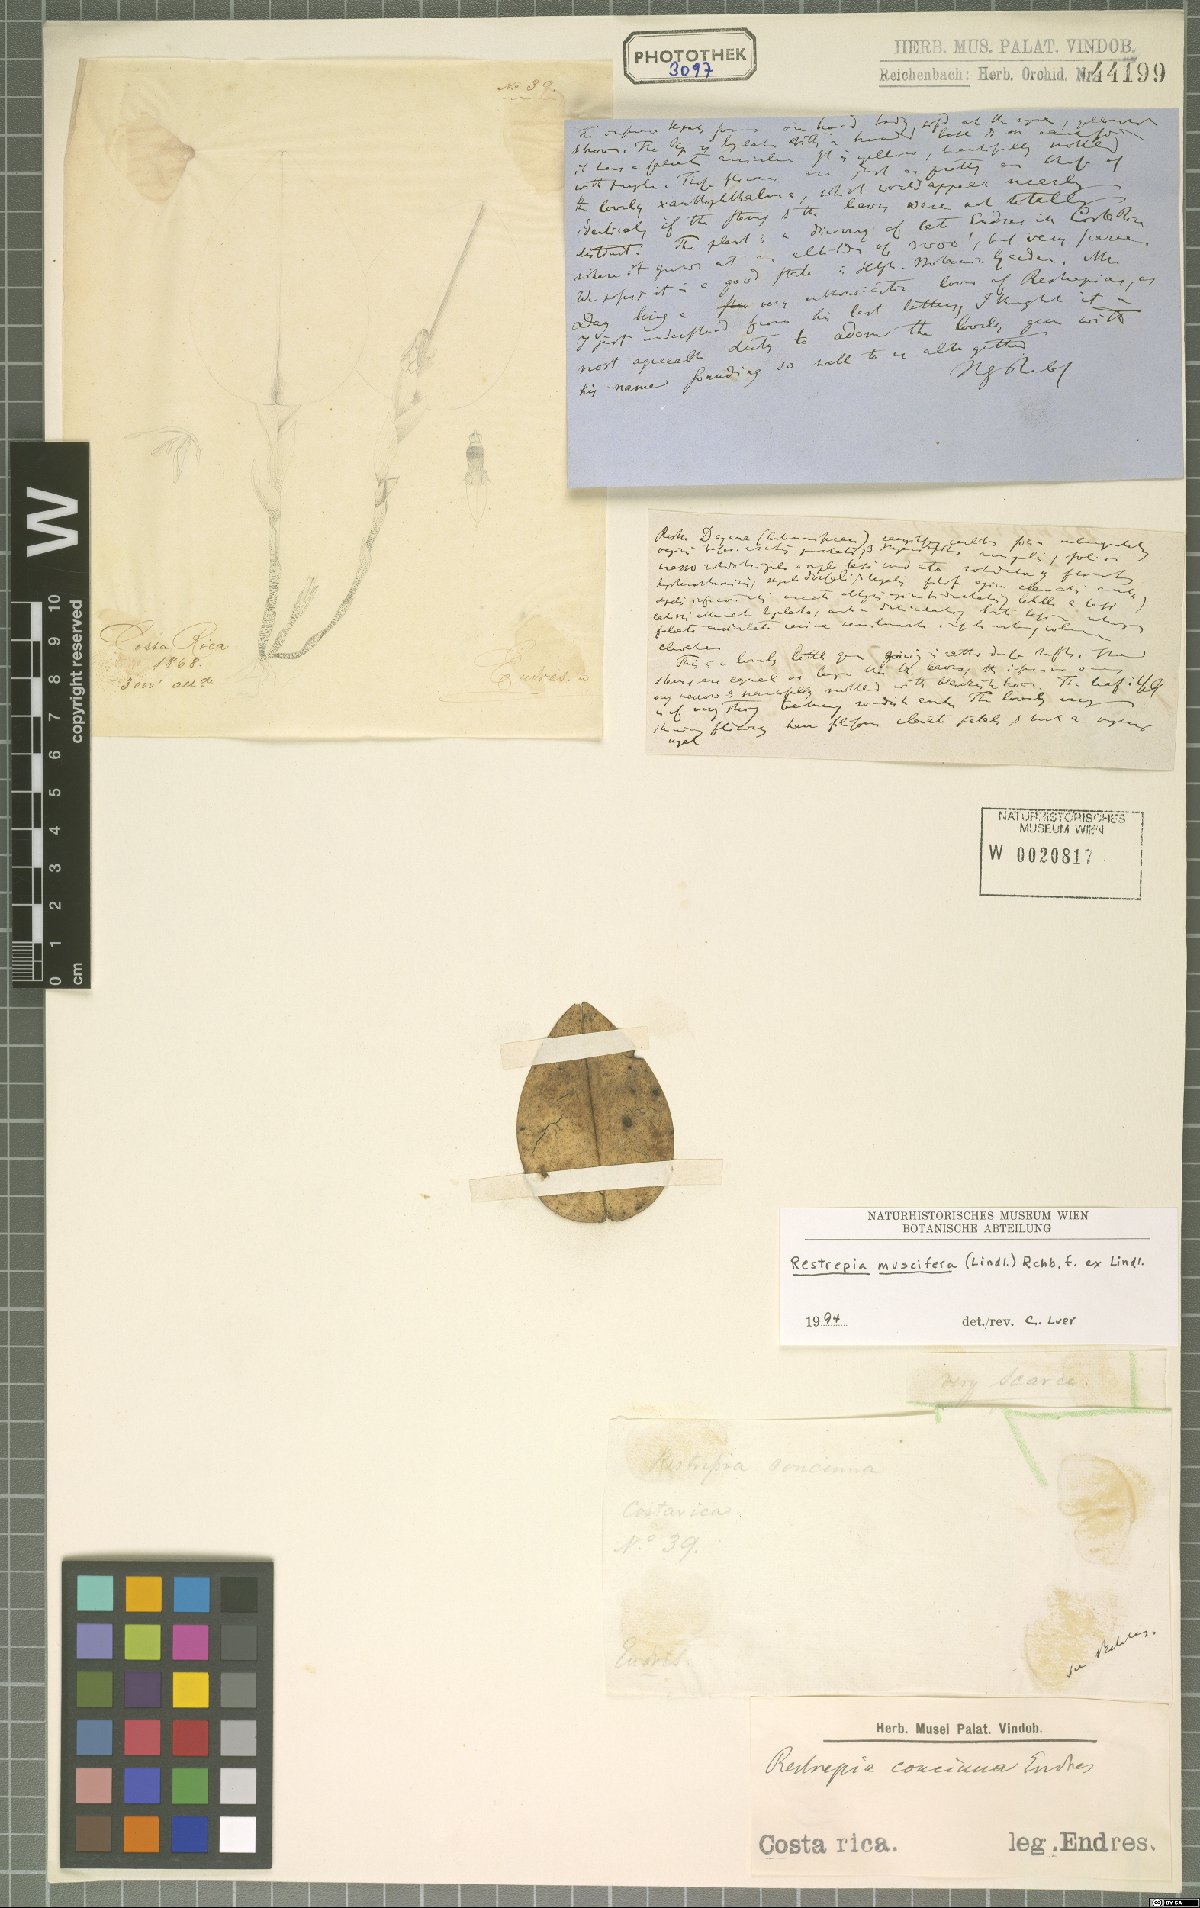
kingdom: Plantae
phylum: Tracheophyta
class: Liliopsida
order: Asparagales
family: Orchidaceae
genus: Restrepia
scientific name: Restrepia muscifera
